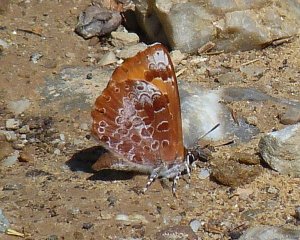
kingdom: Animalia
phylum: Arthropoda
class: Insecta
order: Lepidoptera
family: Lycaenidae
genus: Feniseca
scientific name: Feniseca tarquinius
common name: Harvester
